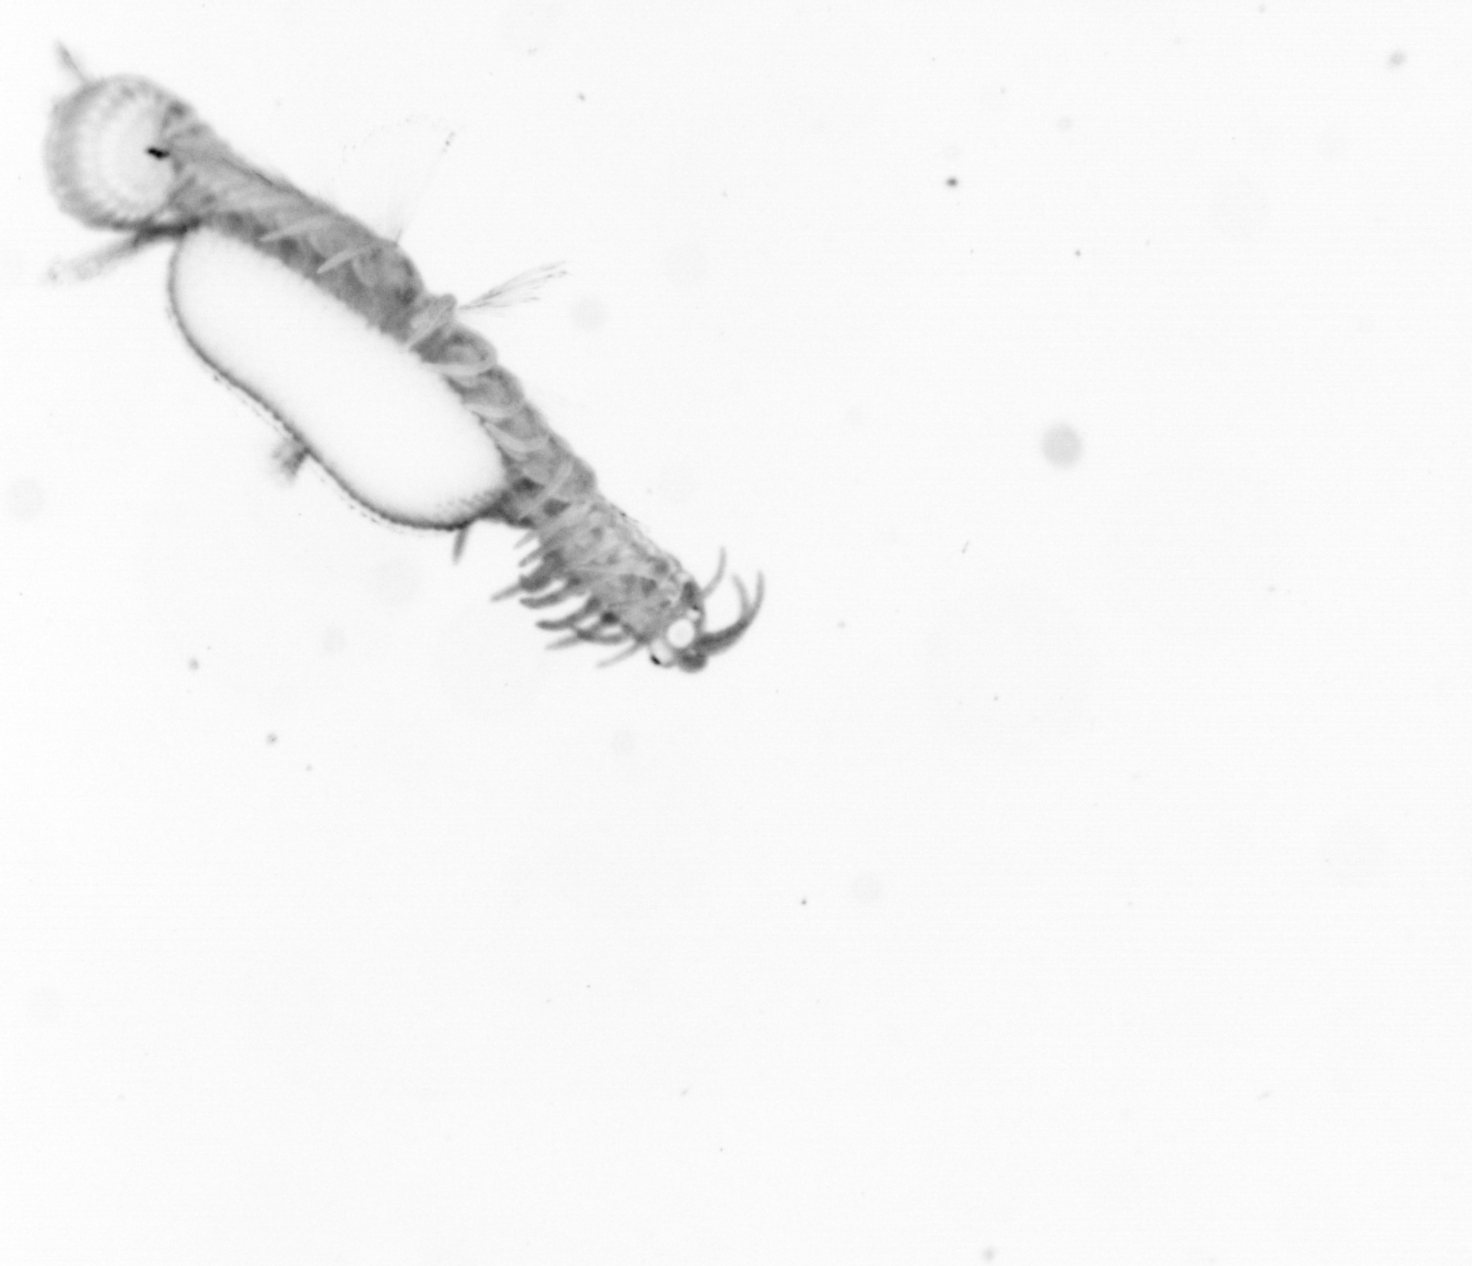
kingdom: Animalia
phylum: Annelida
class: Polychaeta
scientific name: Polychaeta
